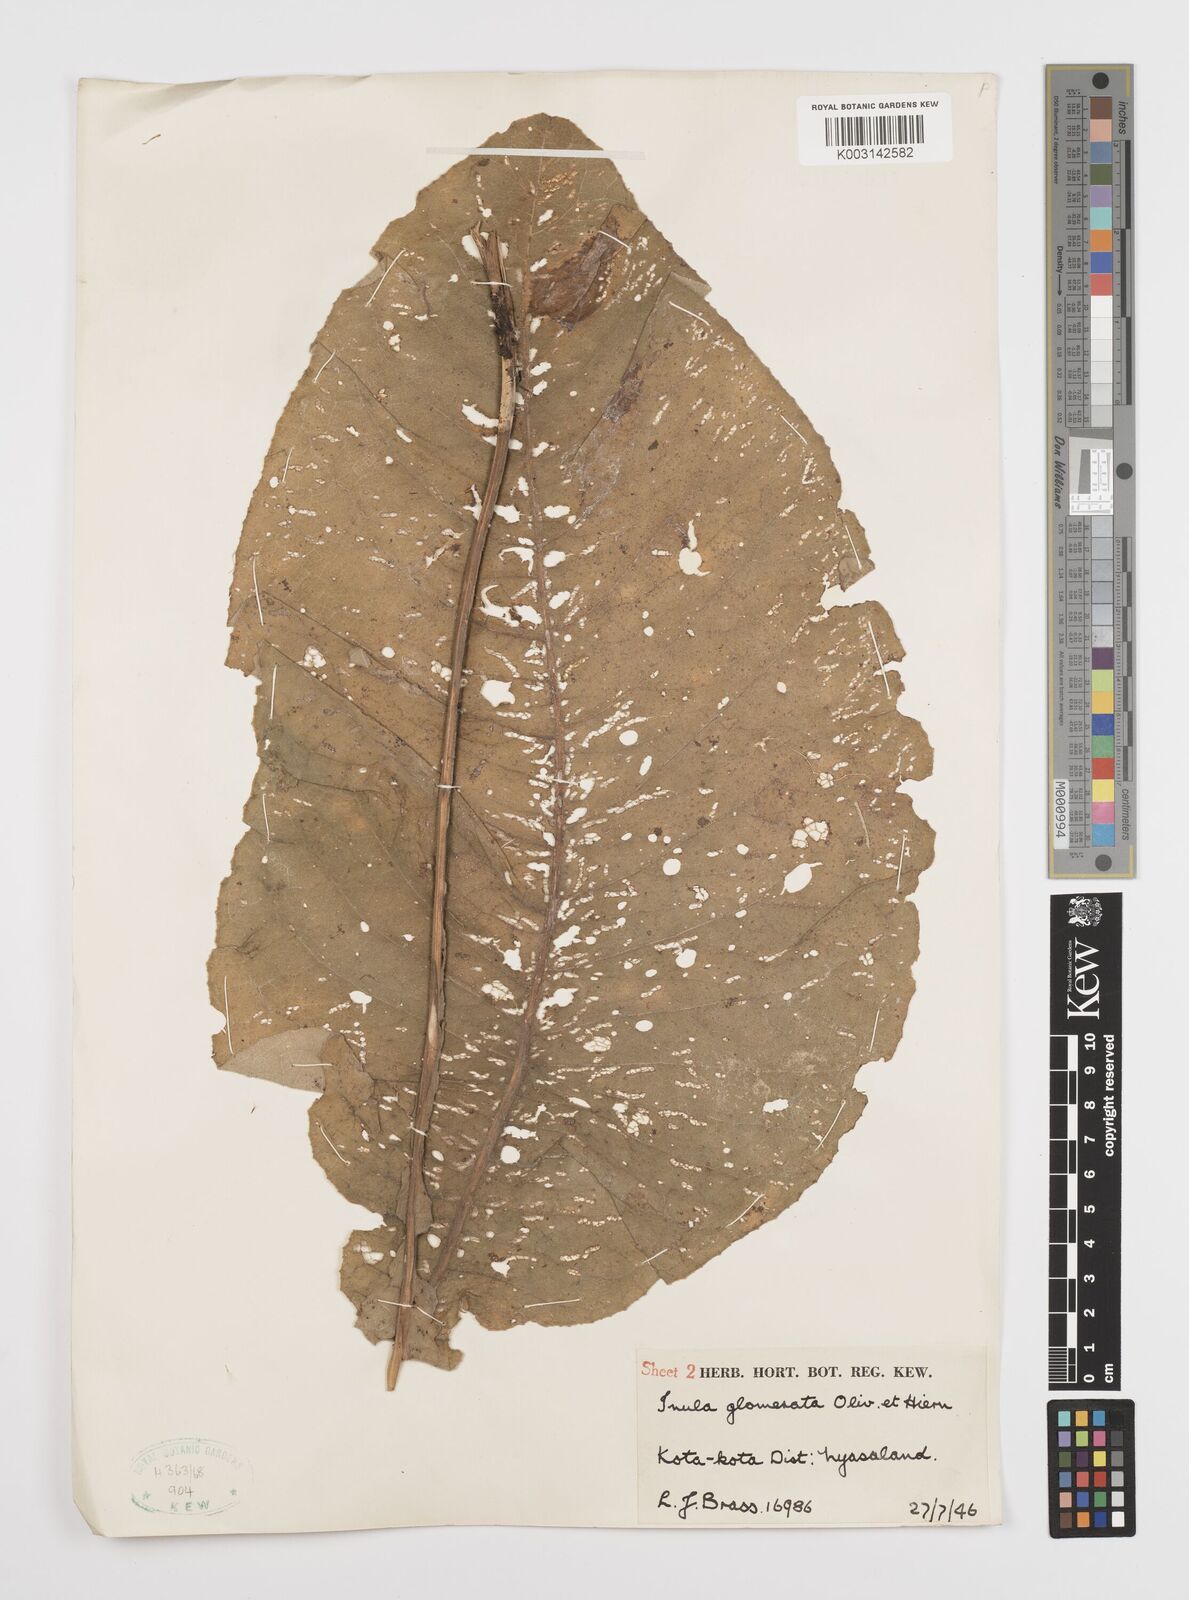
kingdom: Plantae
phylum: Tracheophyta
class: Magnoliopsida
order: Asterales
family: Asteraceae
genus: Inula
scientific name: Inula glomerata
